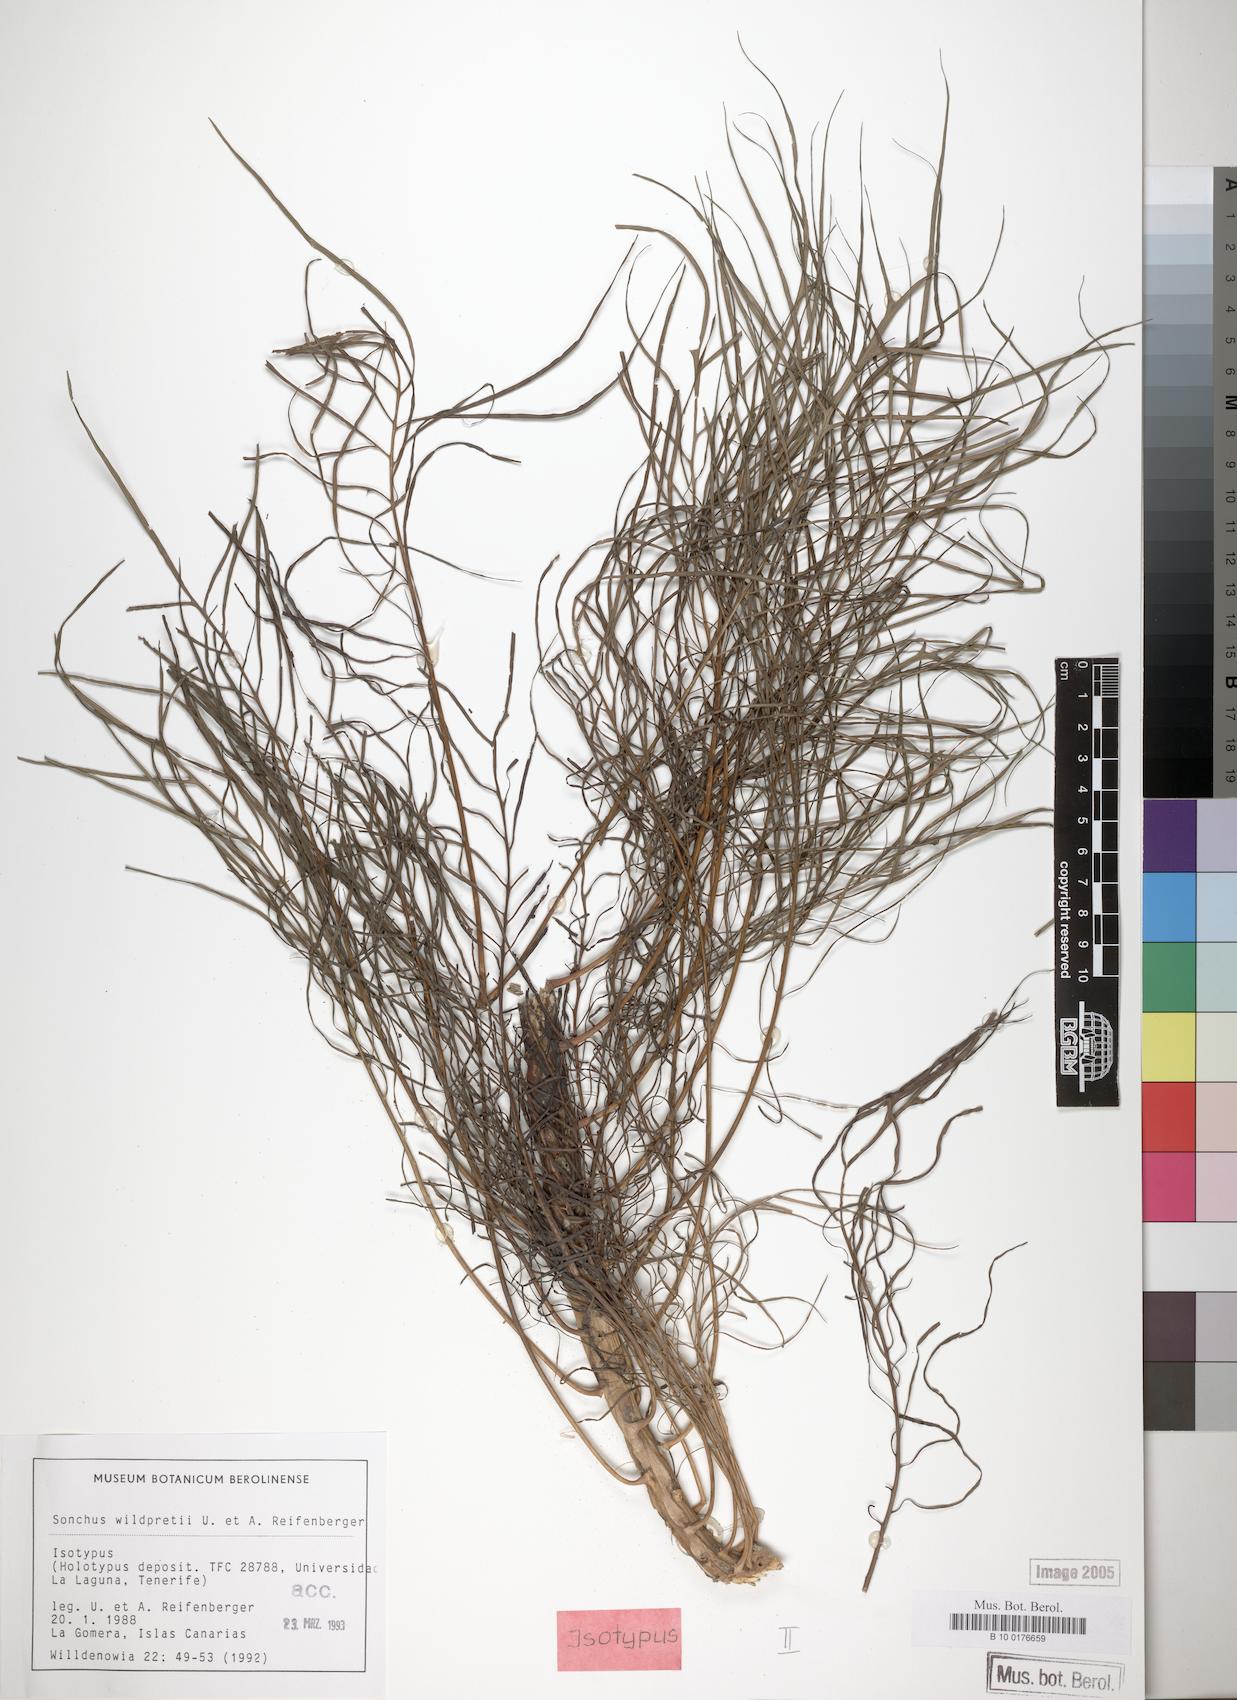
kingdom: Plantae
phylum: Tracheophyta
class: Magnoliopsida
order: Asterales
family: Asteraceae
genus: Sonchus
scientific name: Sonchus wildpretii
